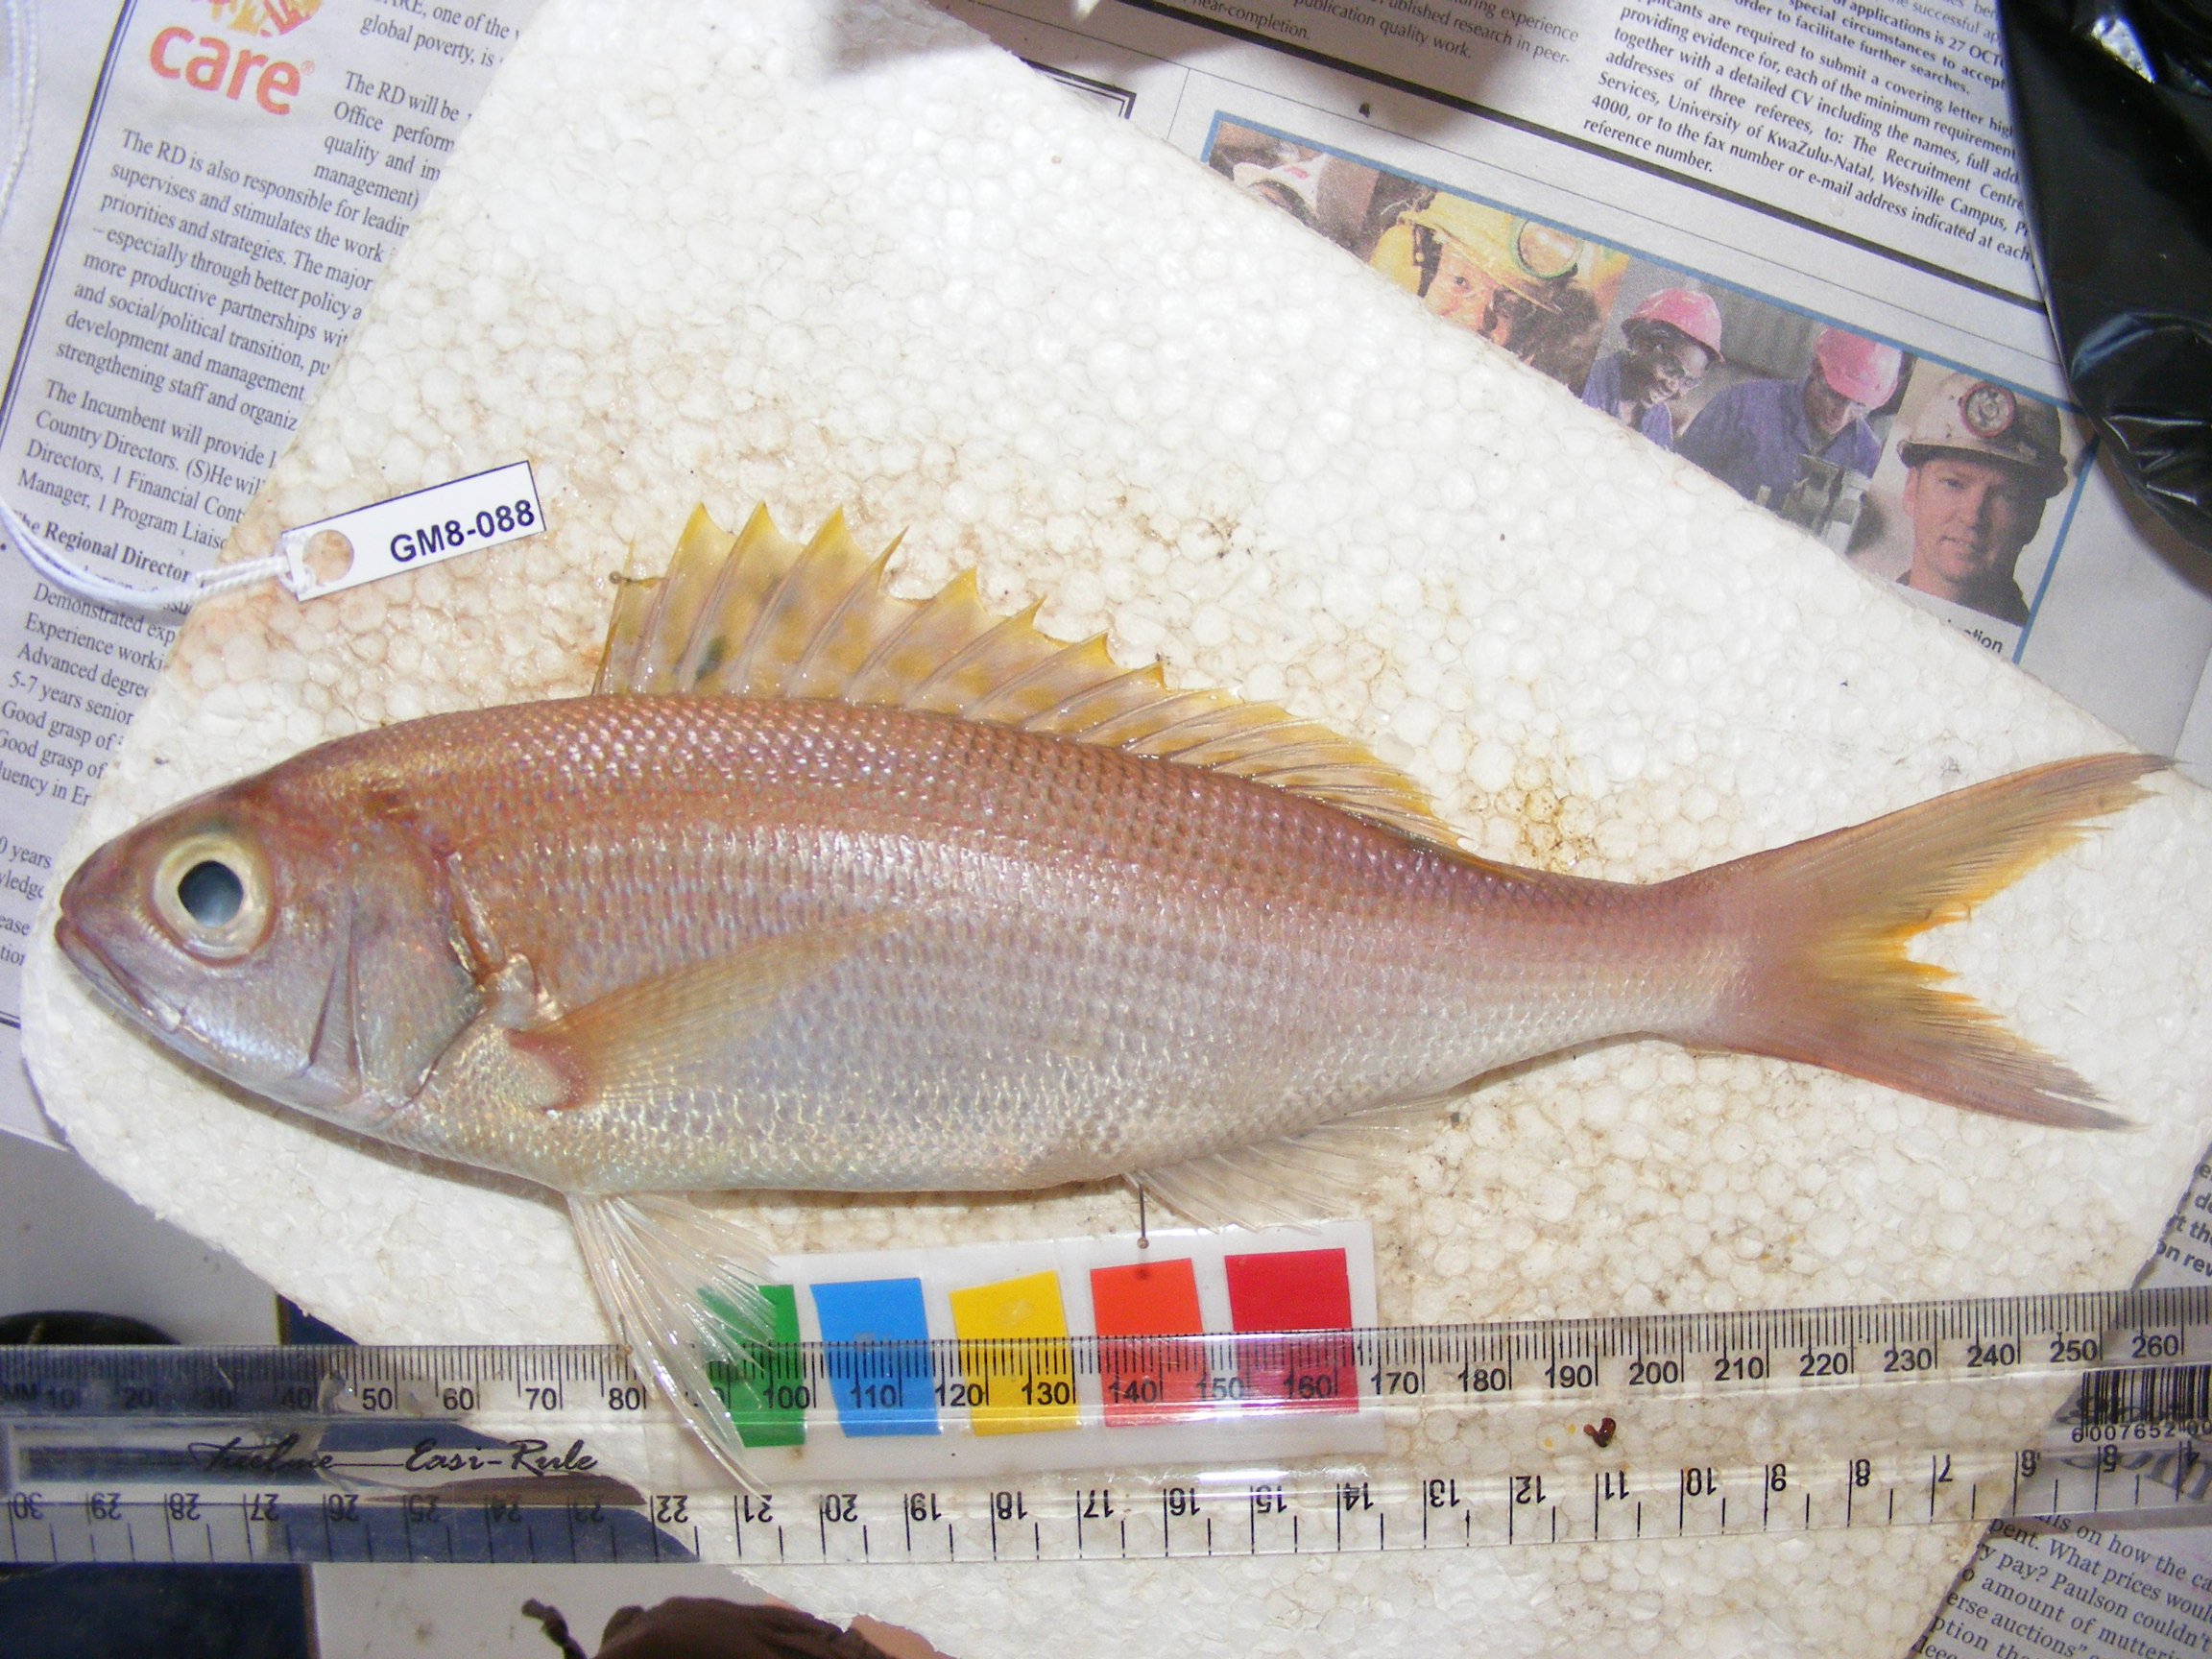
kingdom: Animalia
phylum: Chordata
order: Perciformes
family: Lutjanidae
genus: Aphareus
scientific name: Aphareus rutilans
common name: Rusty jobfish
